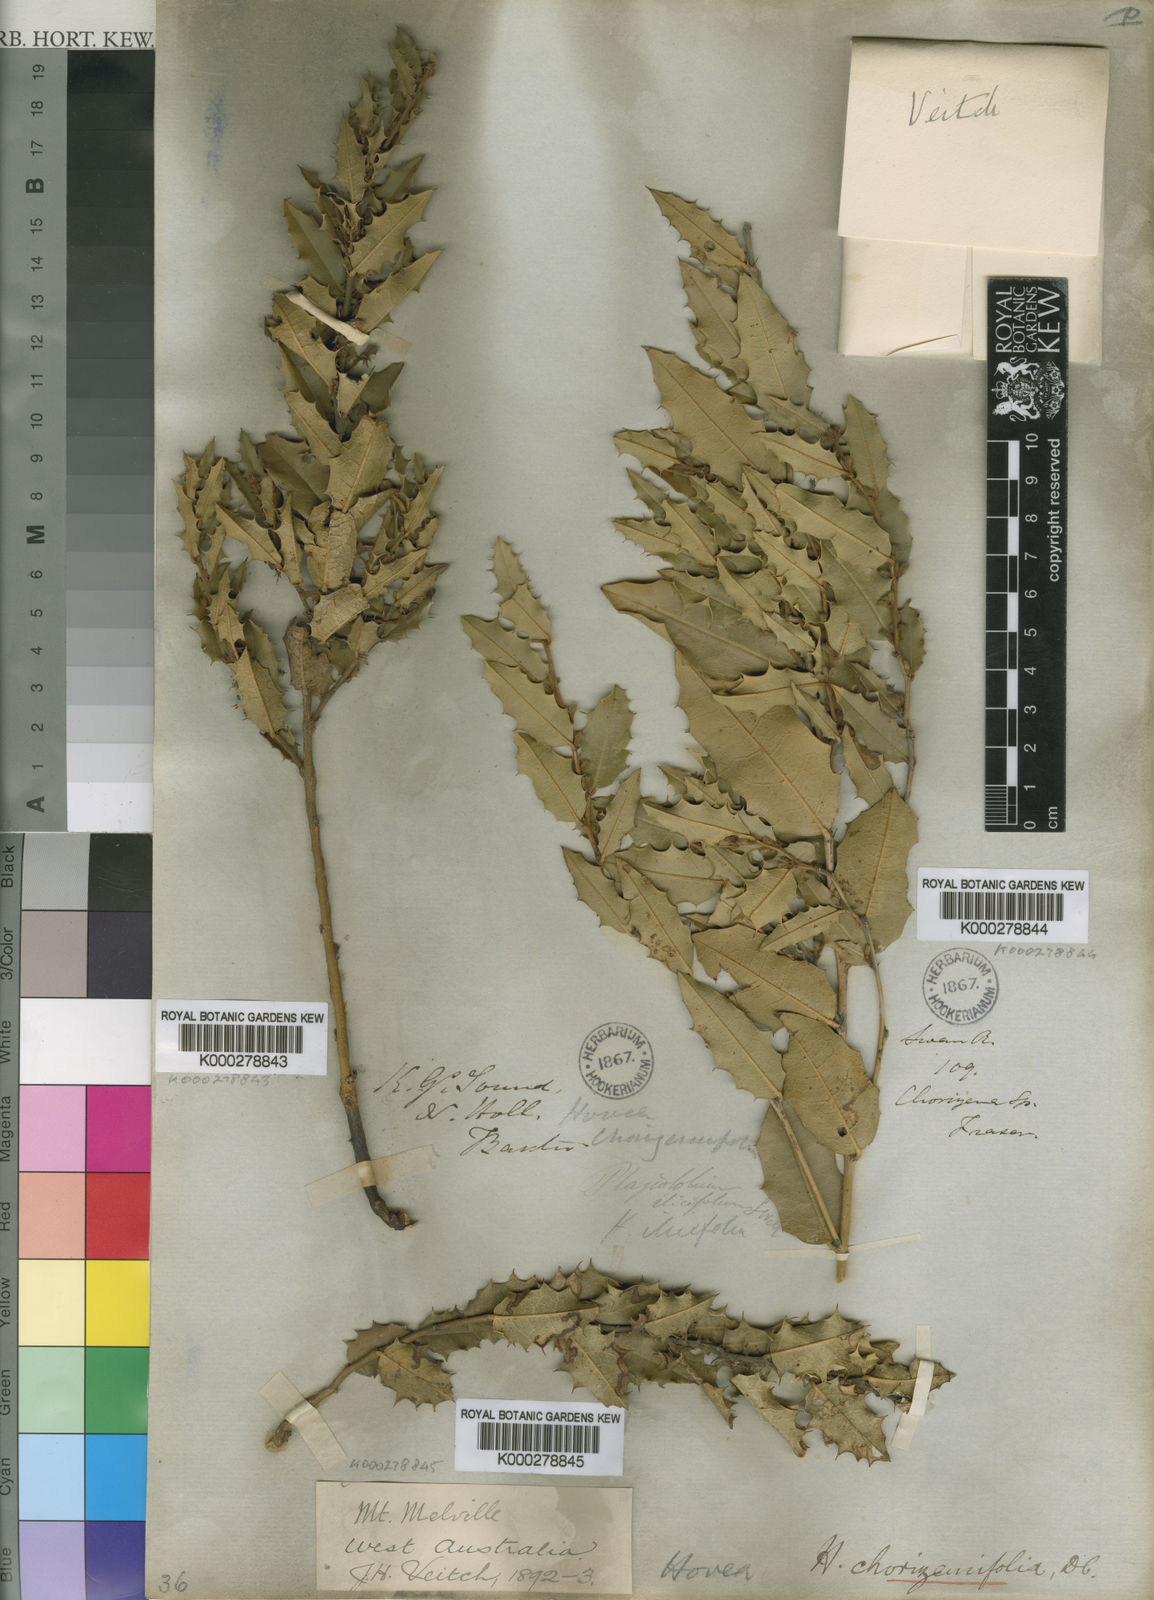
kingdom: Plantae
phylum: Tracheophyta
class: Magnoliopsida
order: Fabales
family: Fabaceae
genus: Hovea
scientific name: Hovea chorizemifolia
